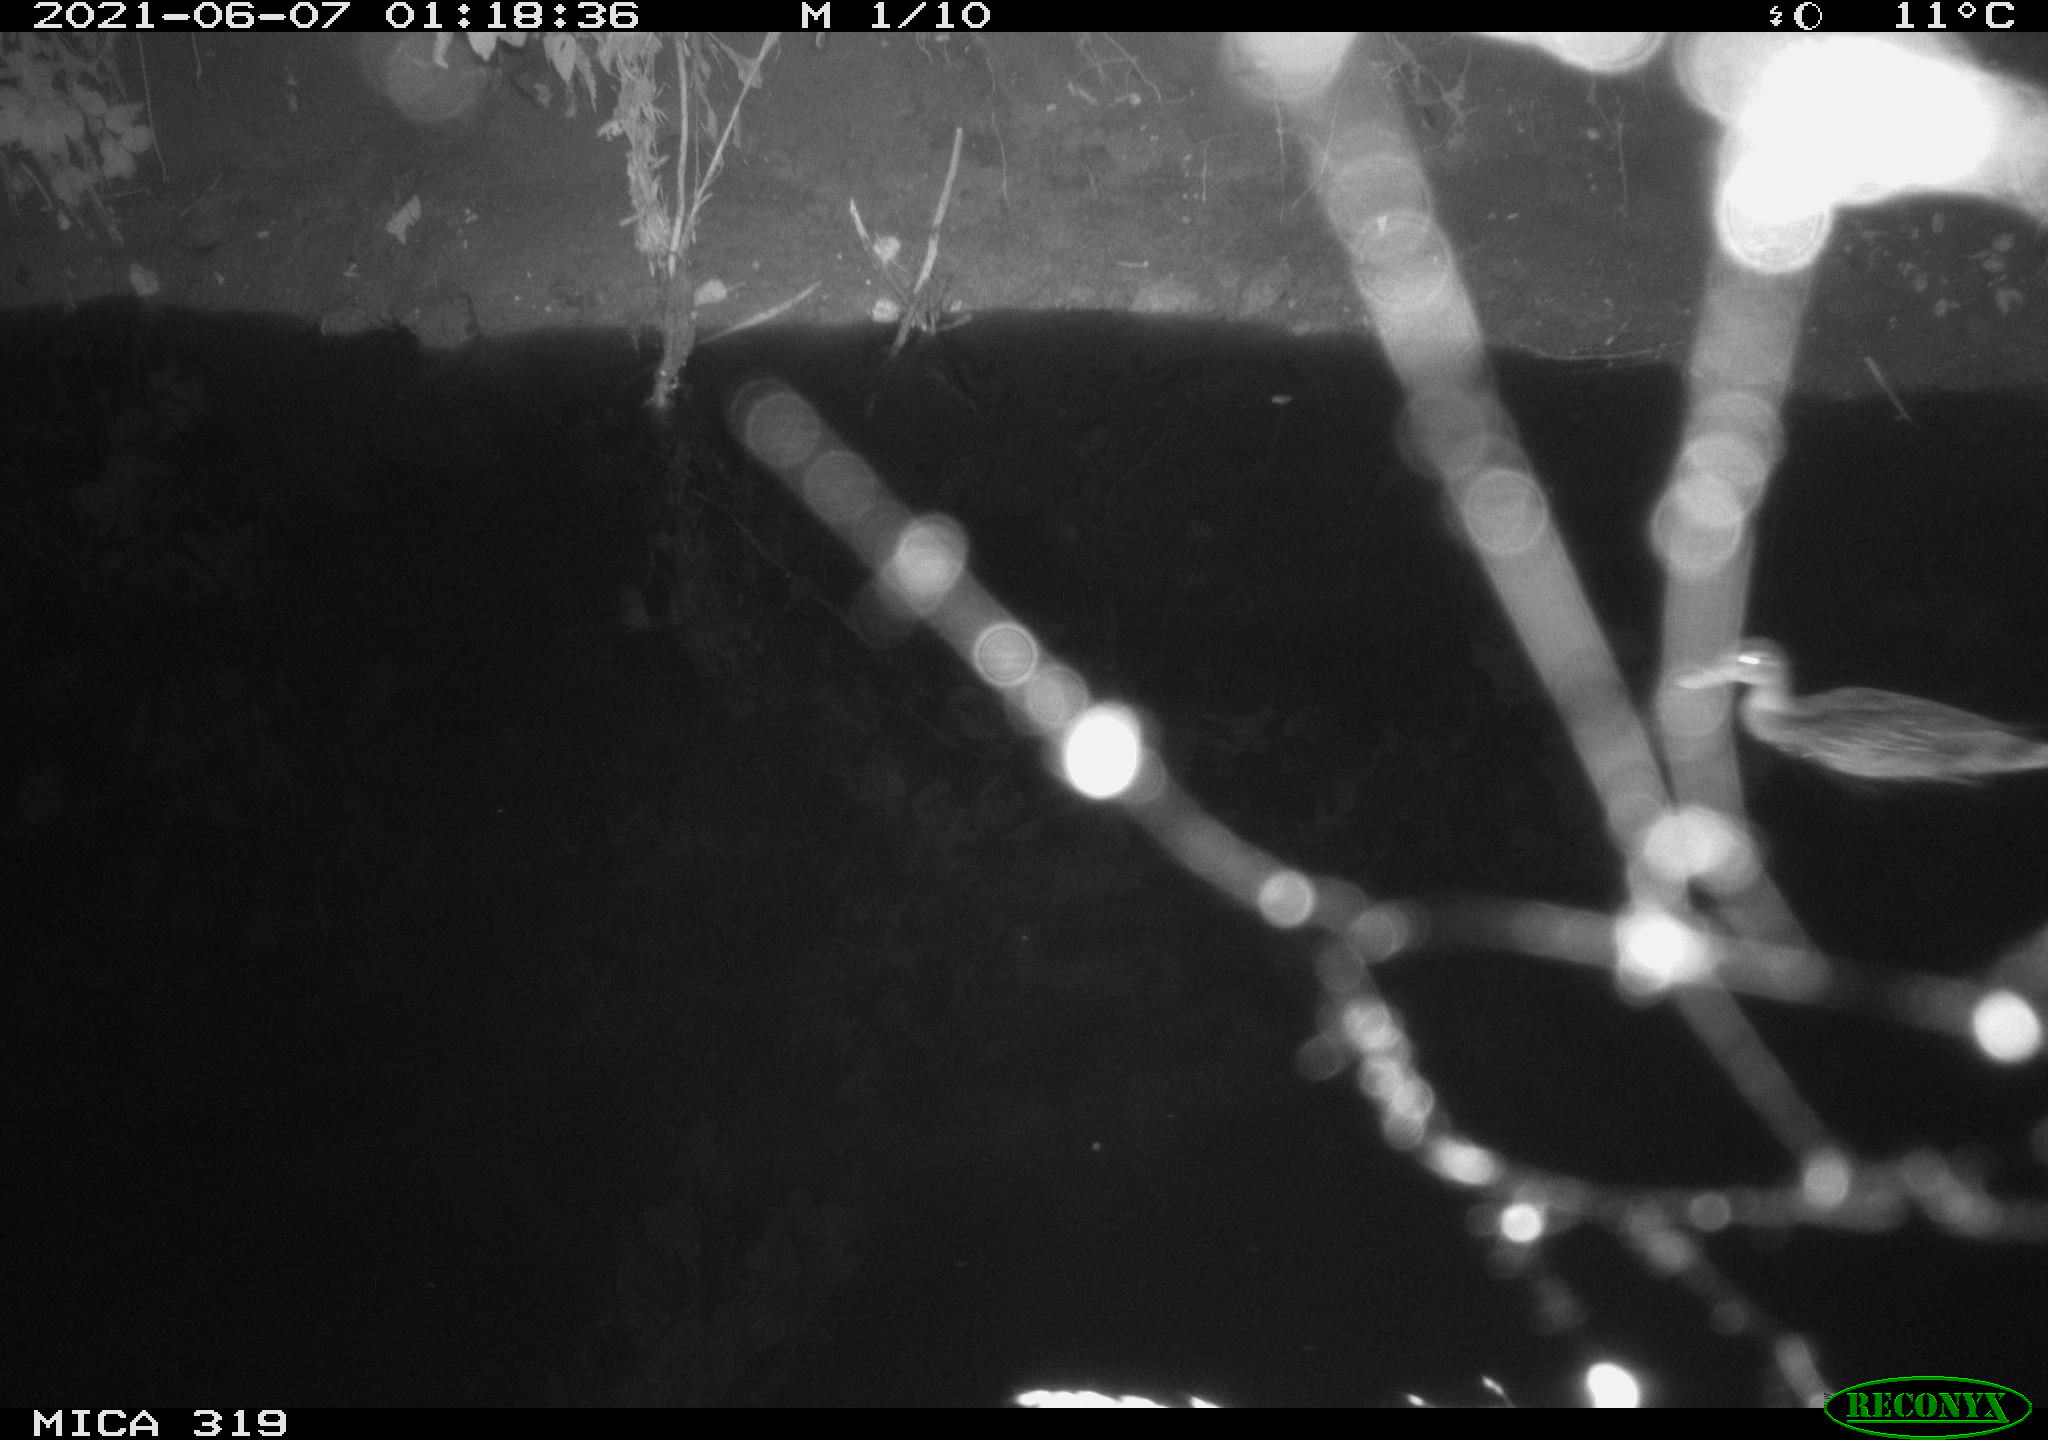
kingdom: Animalia
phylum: Chordata
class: Aves
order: Anseriformes
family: Anatidae
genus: Anas
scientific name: Anas platyrhynchos
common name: Mallard
